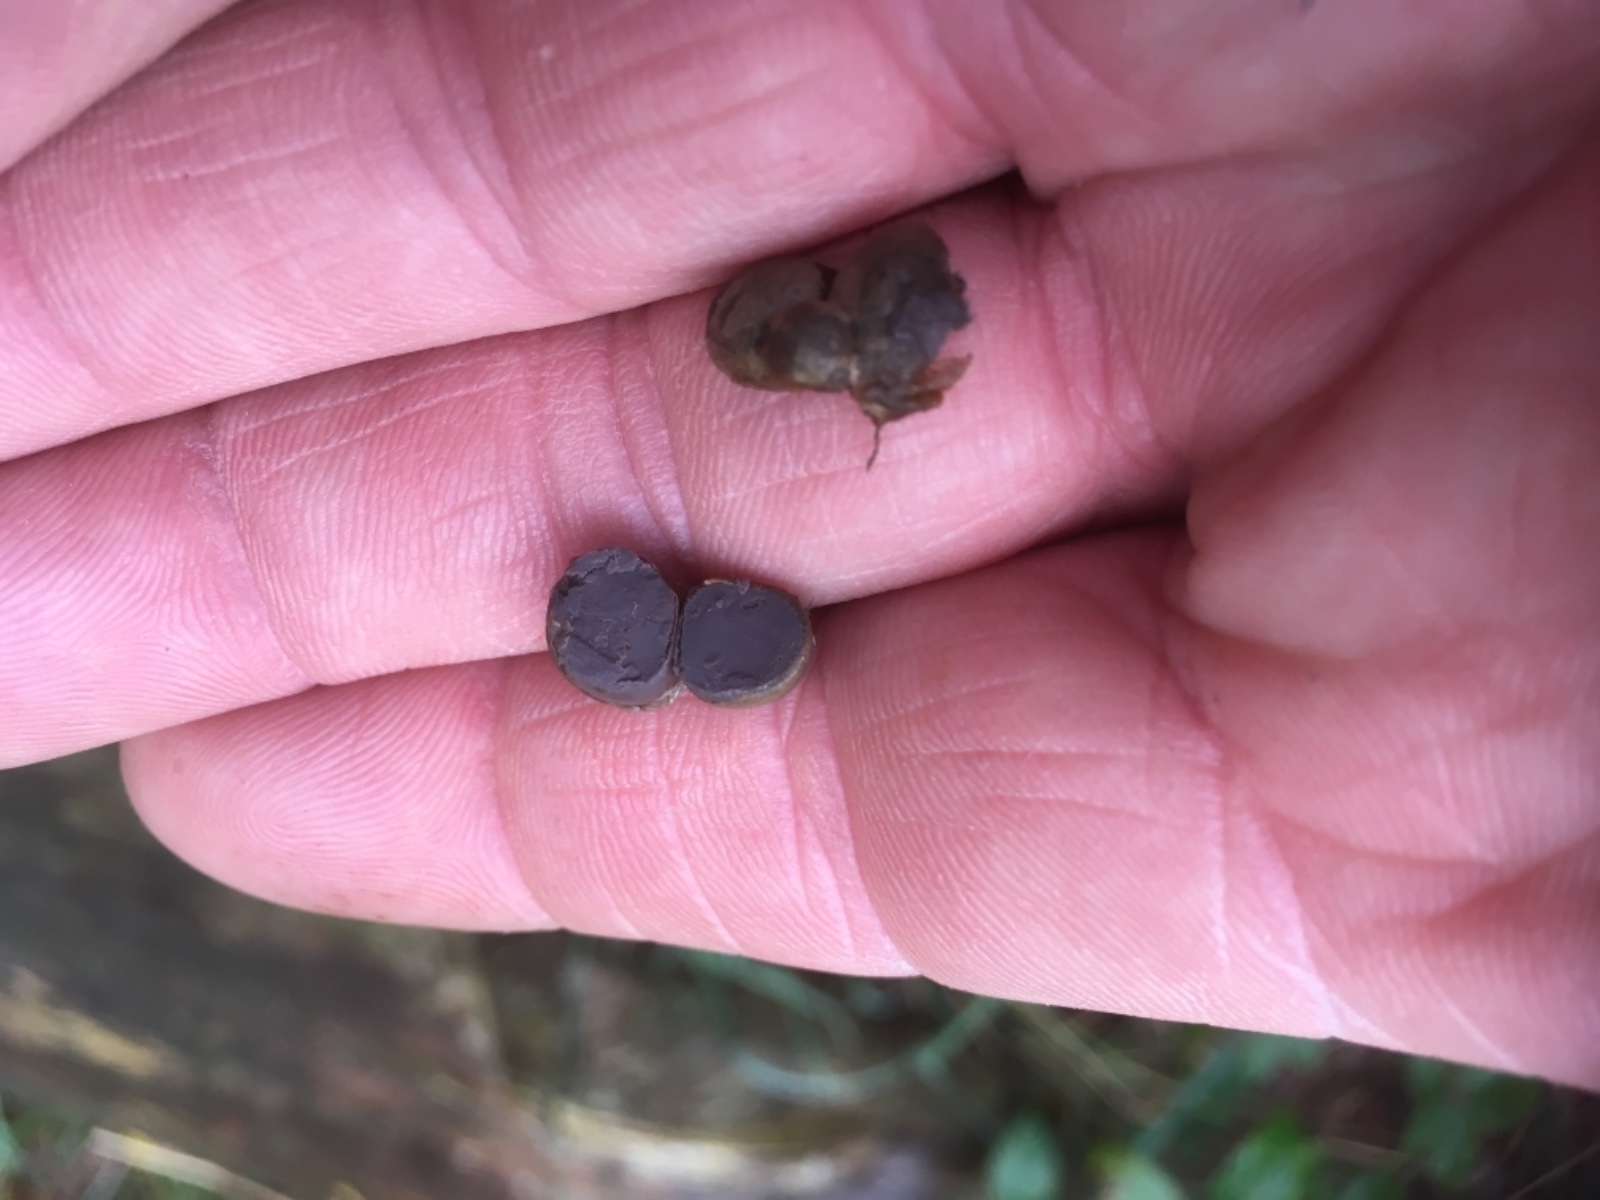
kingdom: Protozoa
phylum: Mycetozoa
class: Myxomycetes
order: Cribrariales
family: Tubiferaceae
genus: Lycogala
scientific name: Lycogala epidendrum
